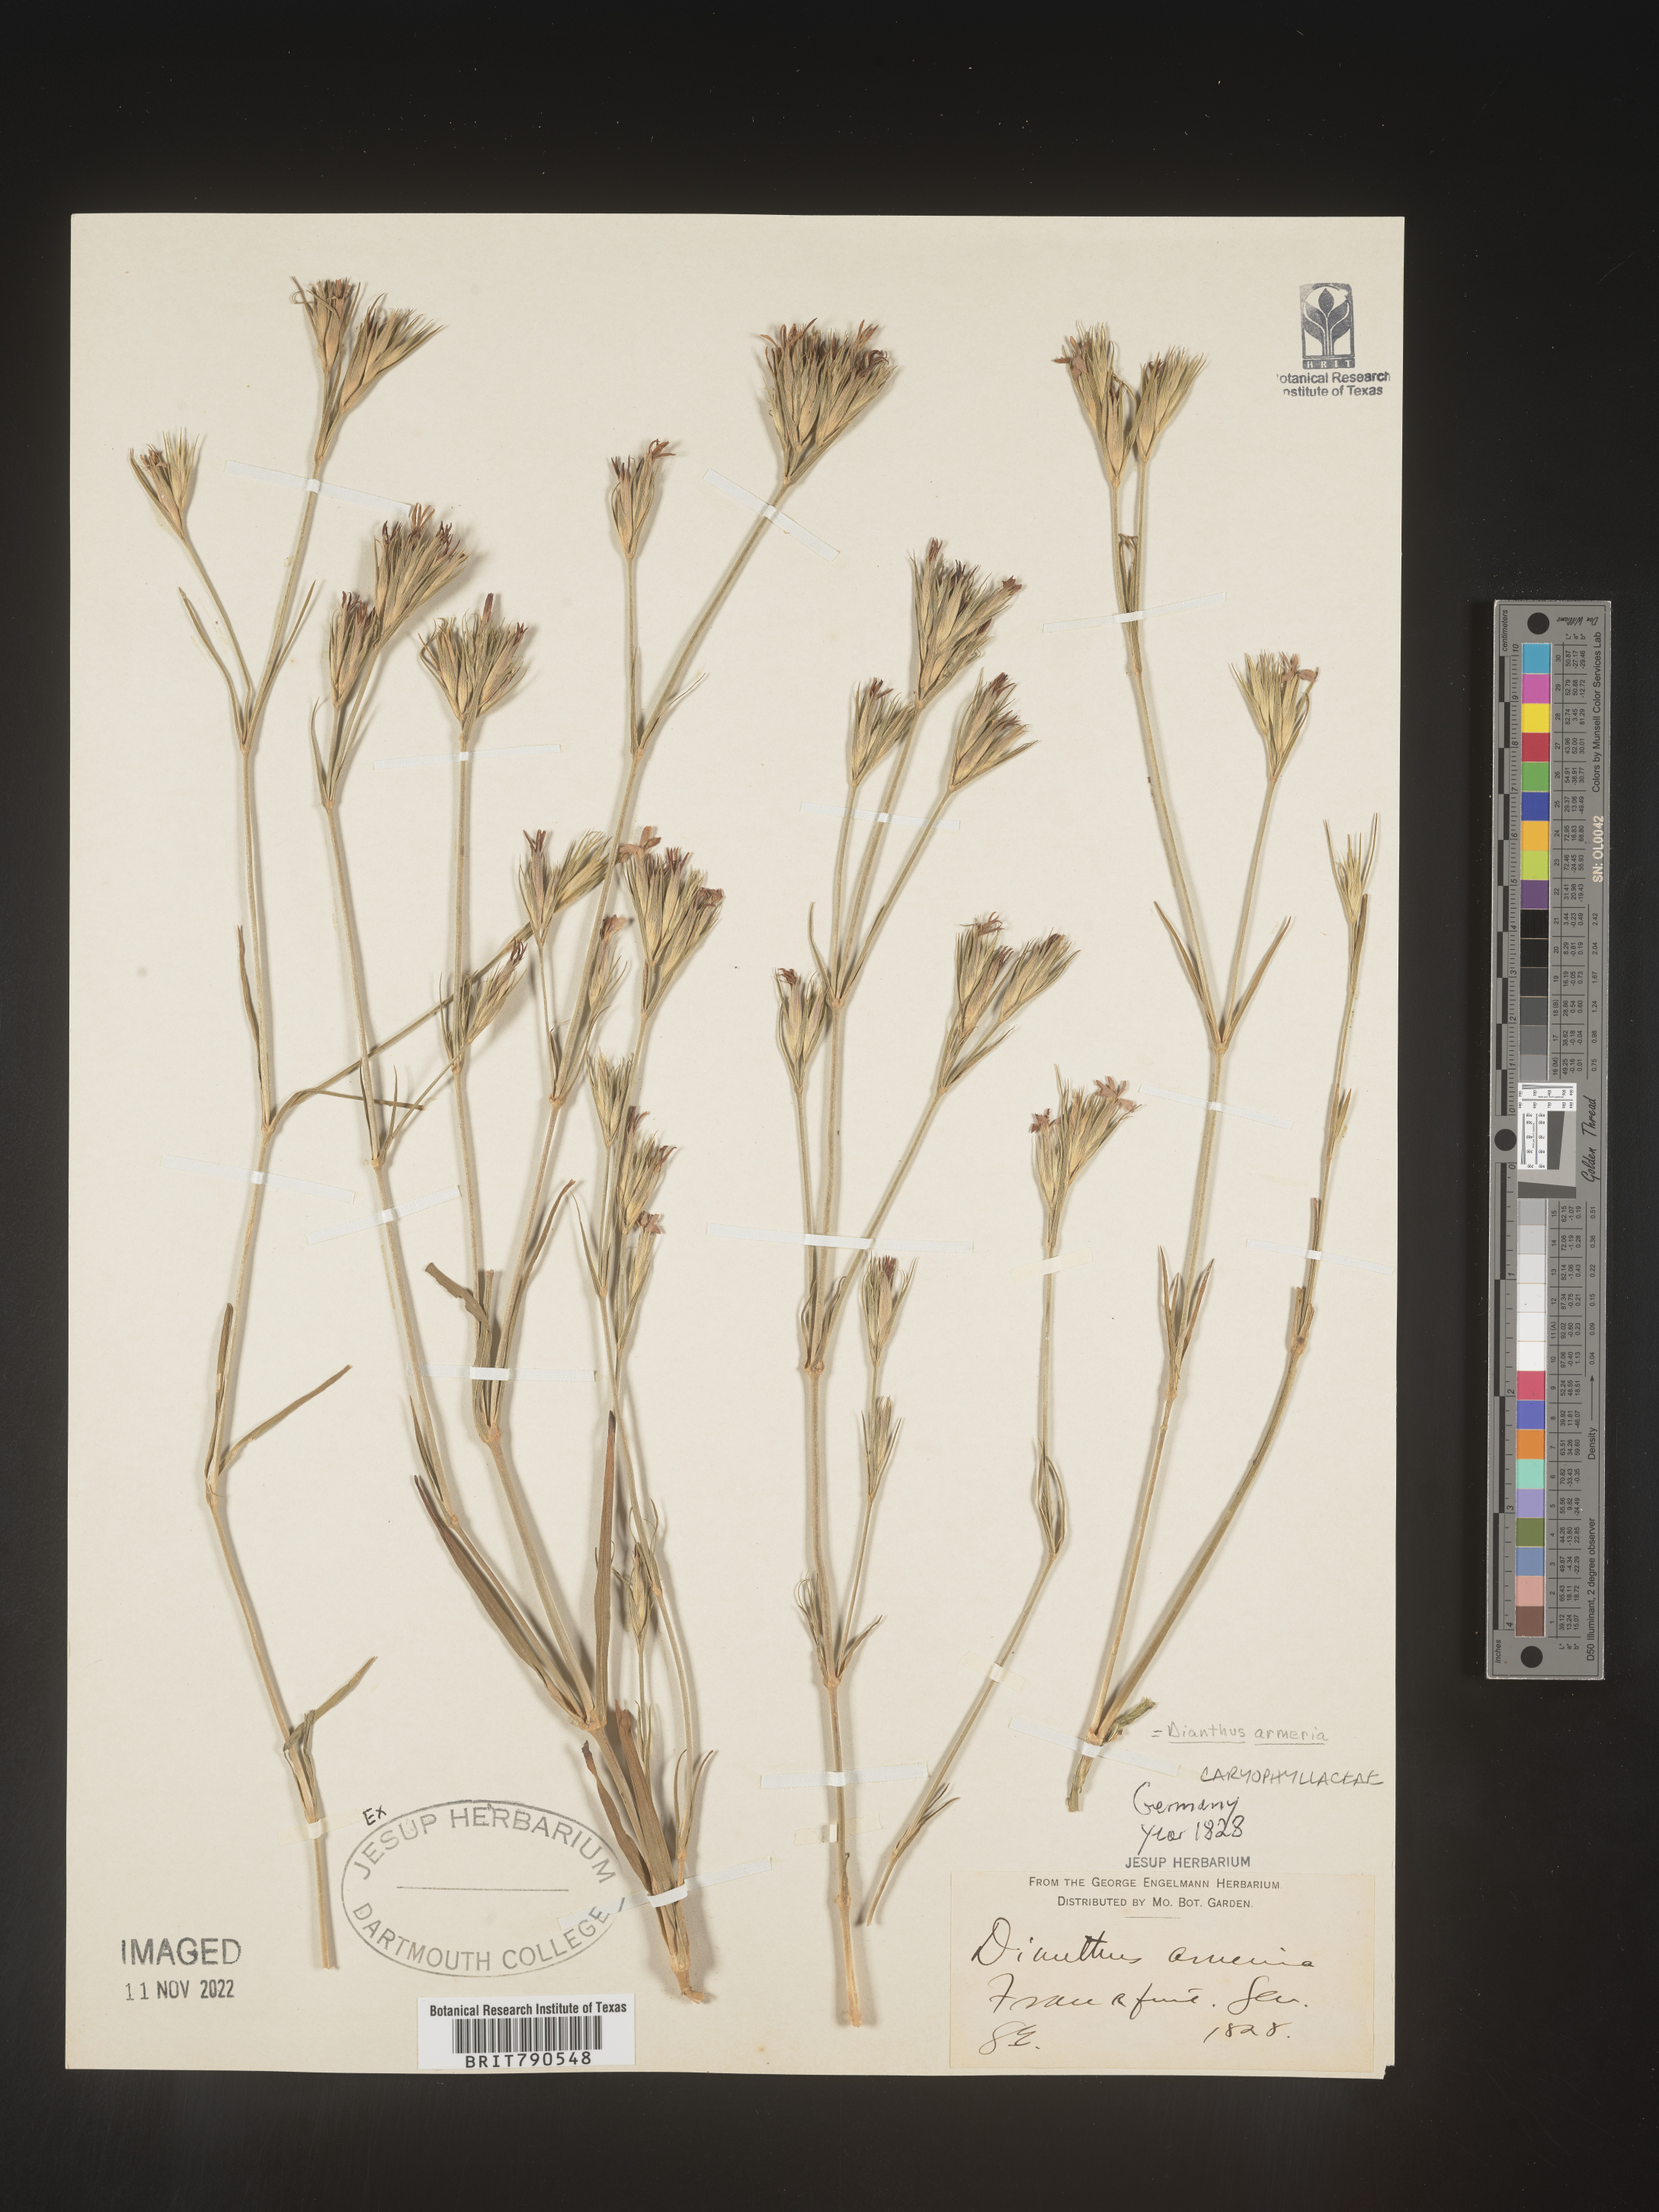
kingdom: Plantae
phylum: Tracheophyta
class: Magnoliopsida
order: Caryophyllales
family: Caryophyllaceae
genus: Dianthus
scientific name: Dianthus
